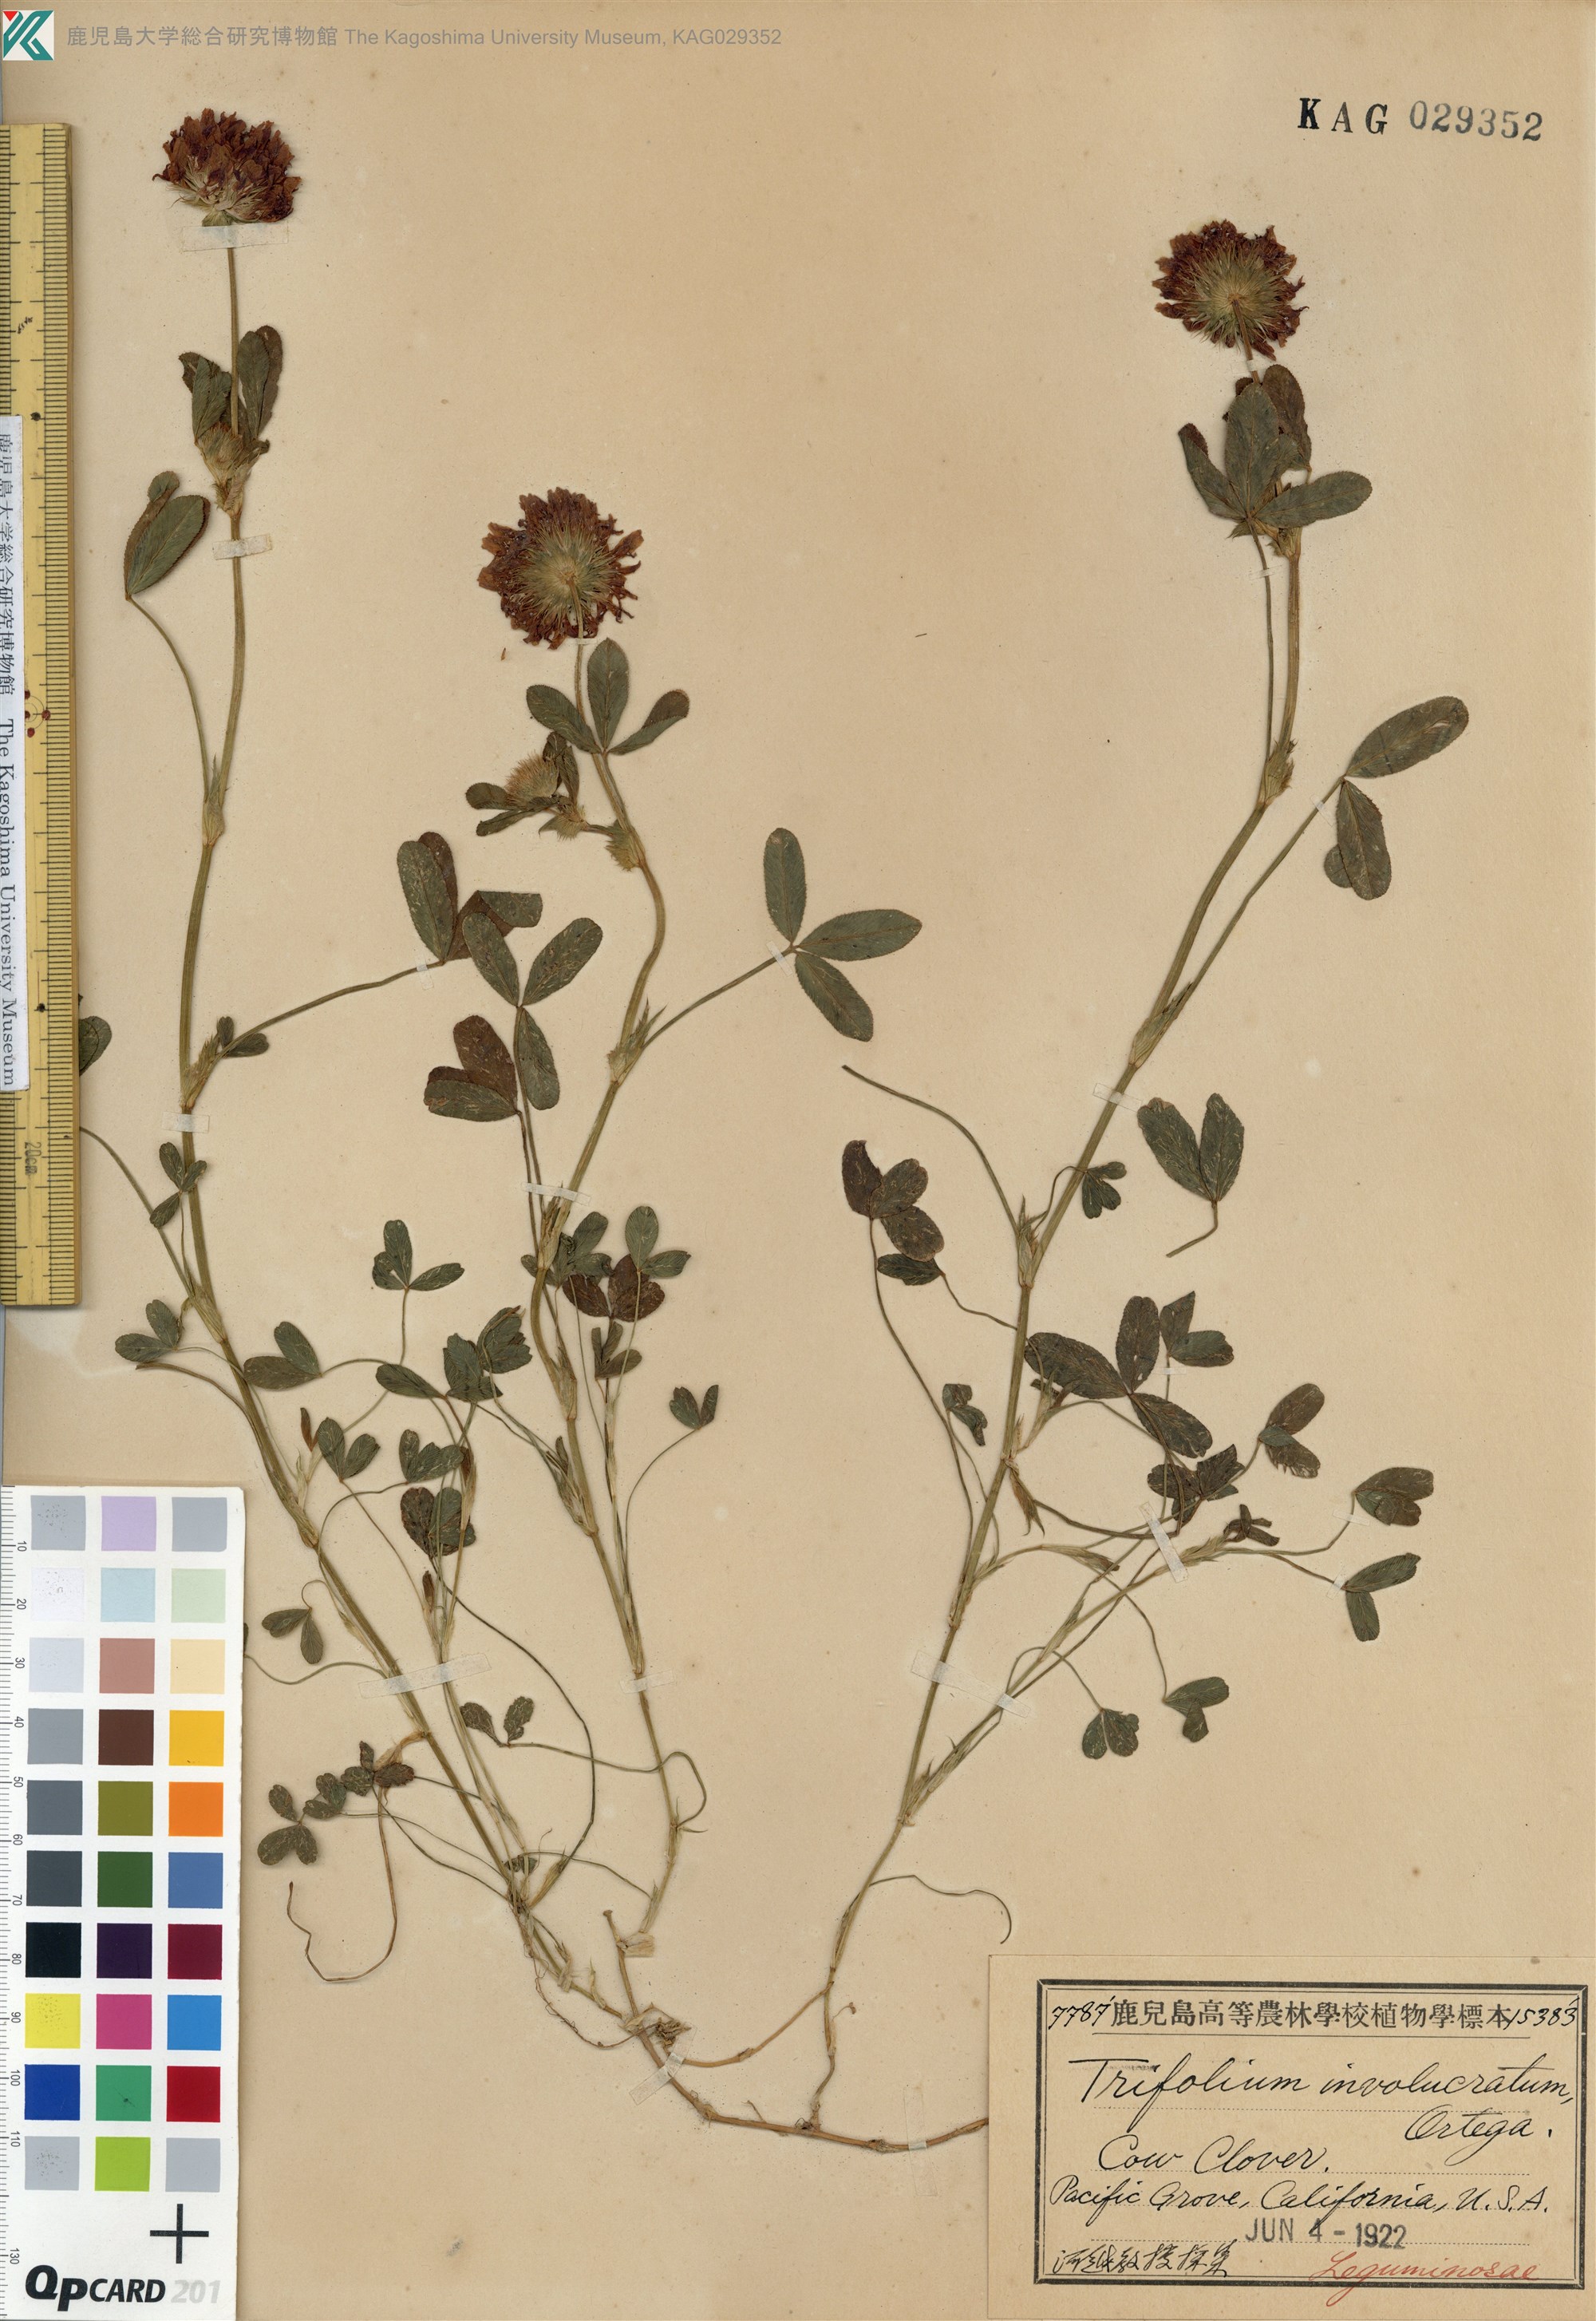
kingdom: Plantae
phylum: Tracheophyta
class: Magnoliopsida
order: Fabales
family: Fabaceae
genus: Trifolium
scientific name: Trifolium cherleri
